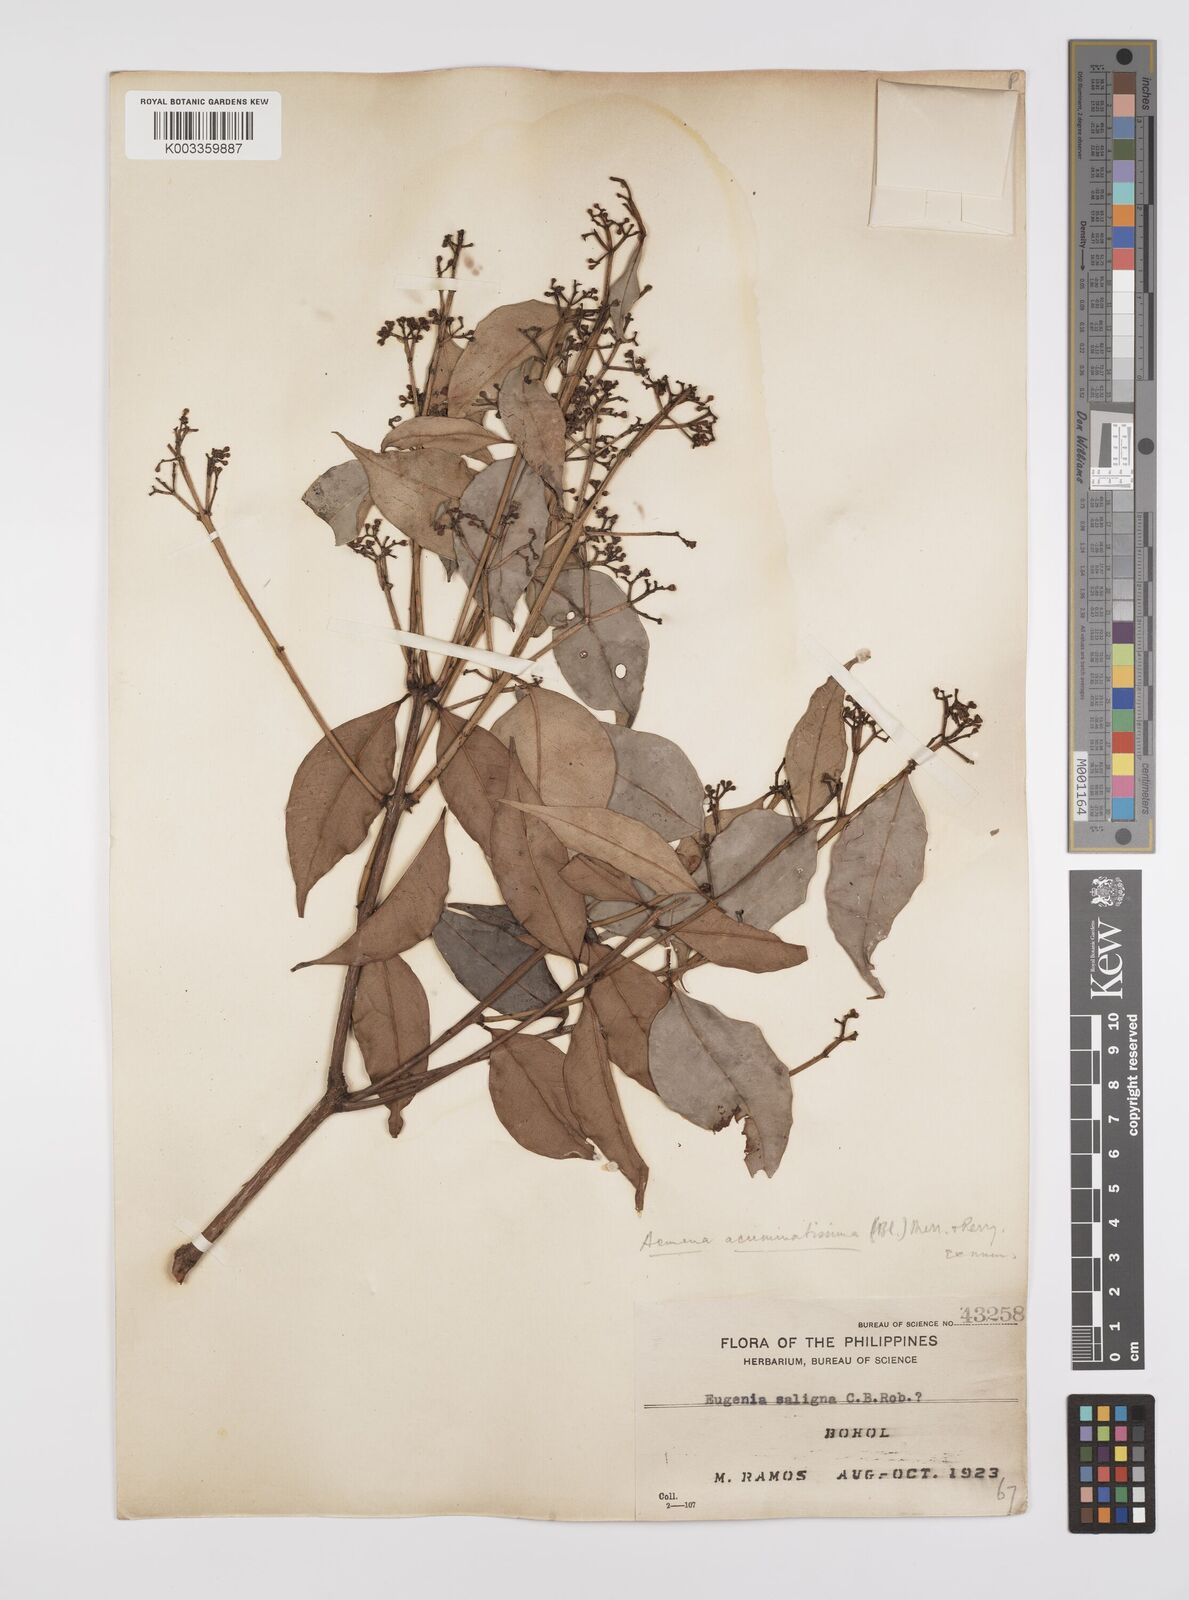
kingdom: Plantae
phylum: Tracheophyta
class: Magnoliopsida
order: Myrtales
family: Myrtaceae
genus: Syzygium
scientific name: Syzygium
